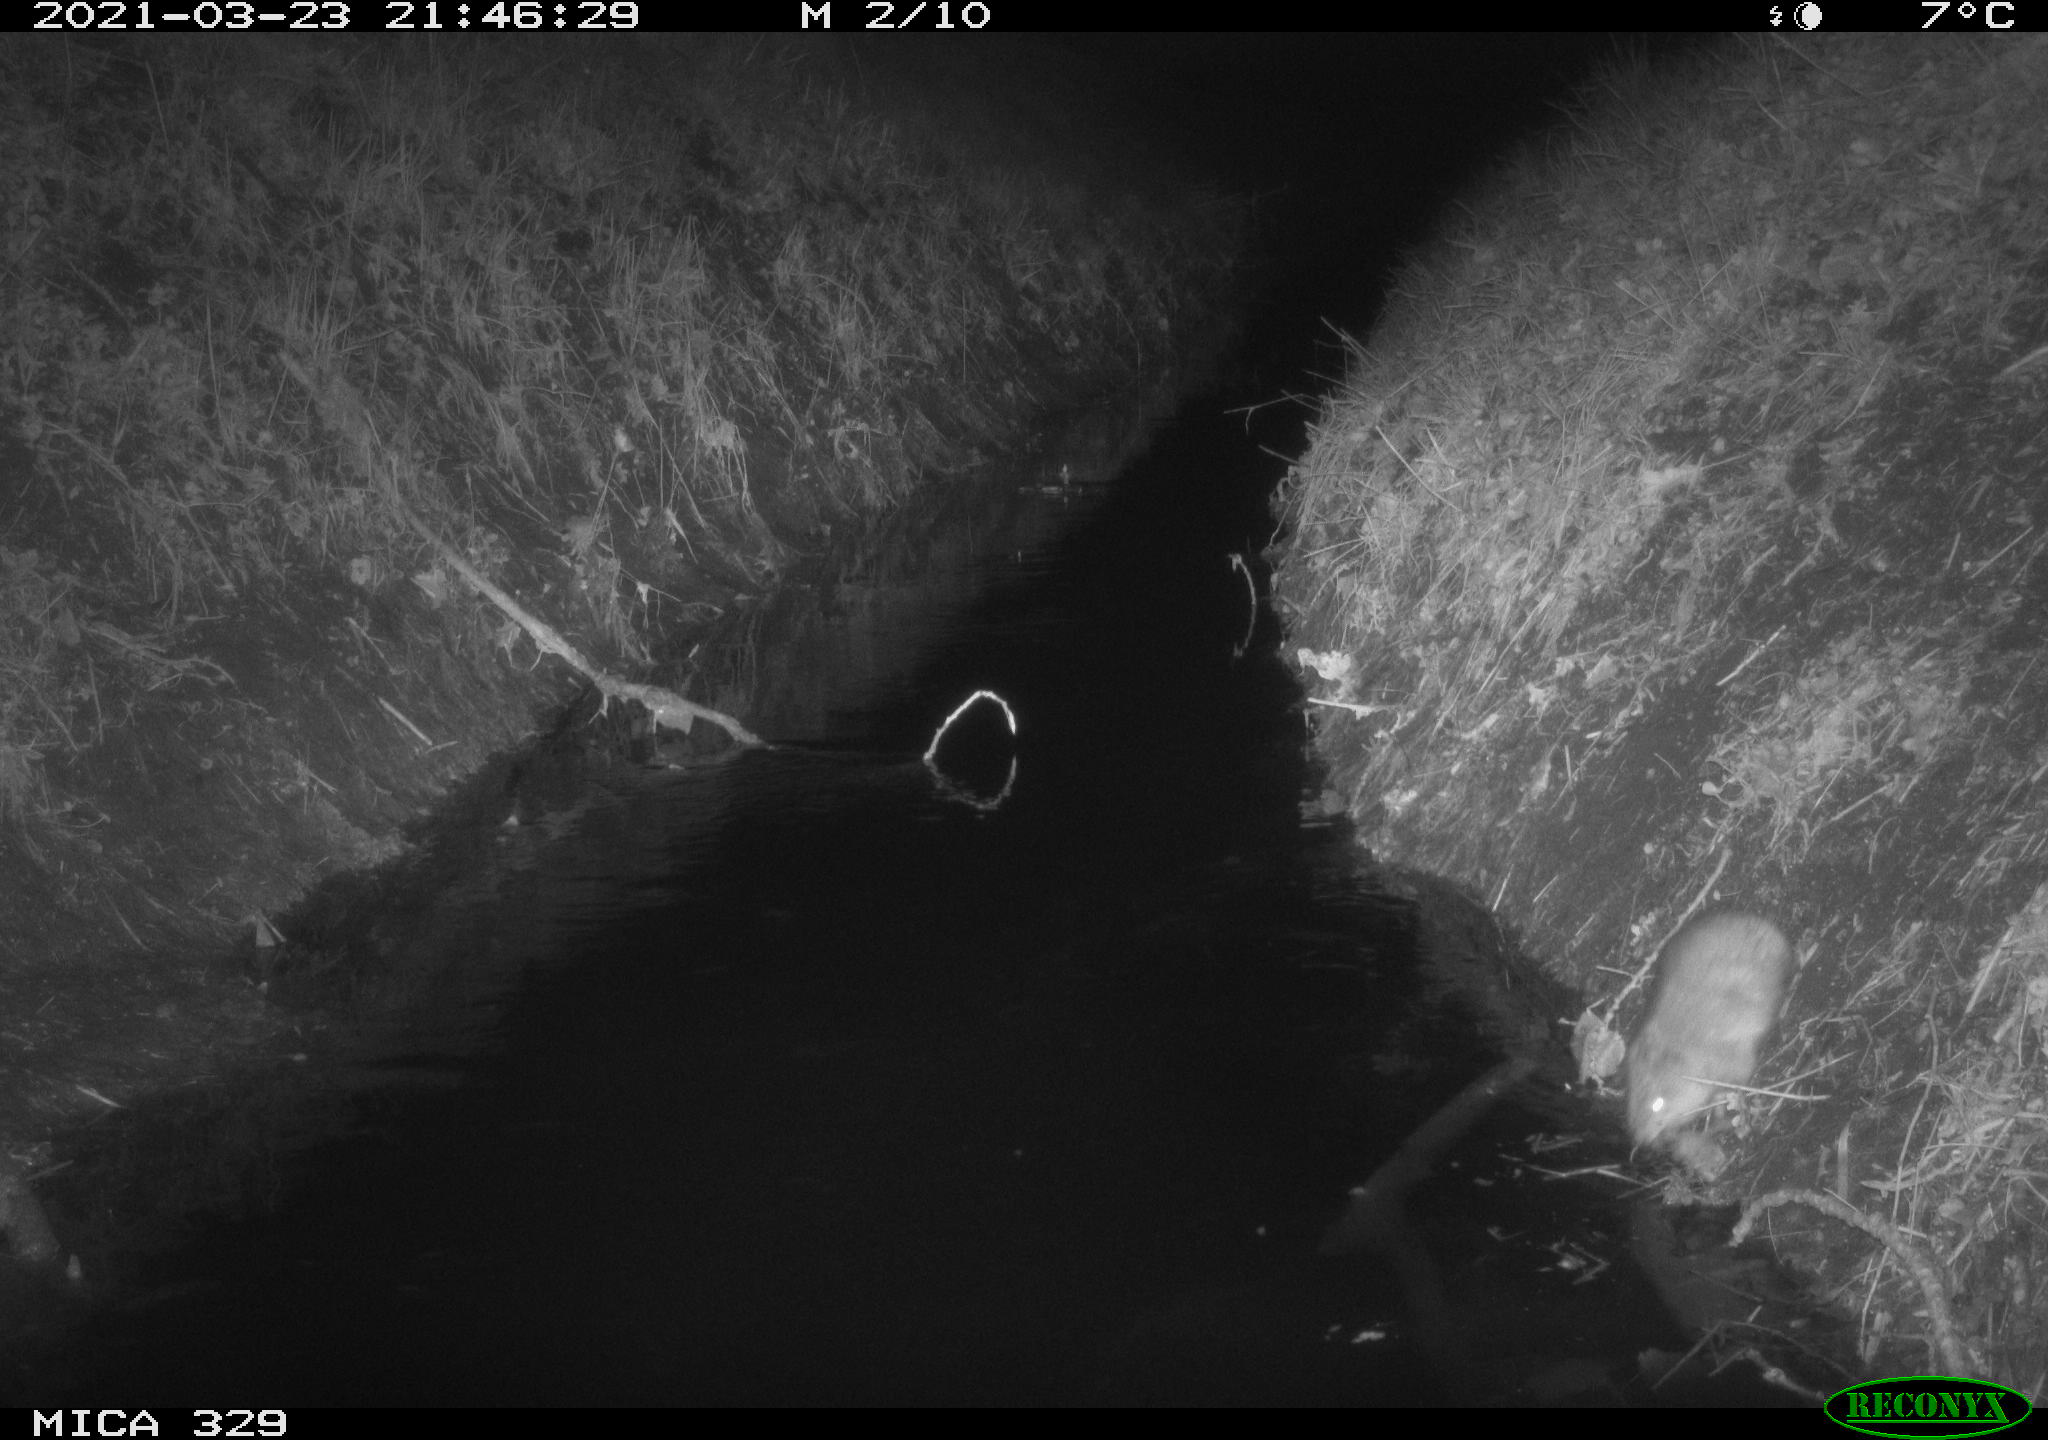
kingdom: Animalia
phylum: Chordata
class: Mammalia
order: Rodentia
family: Cricetidae
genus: Ondatra
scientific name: Ondatra zibethicus
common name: Muskrat
